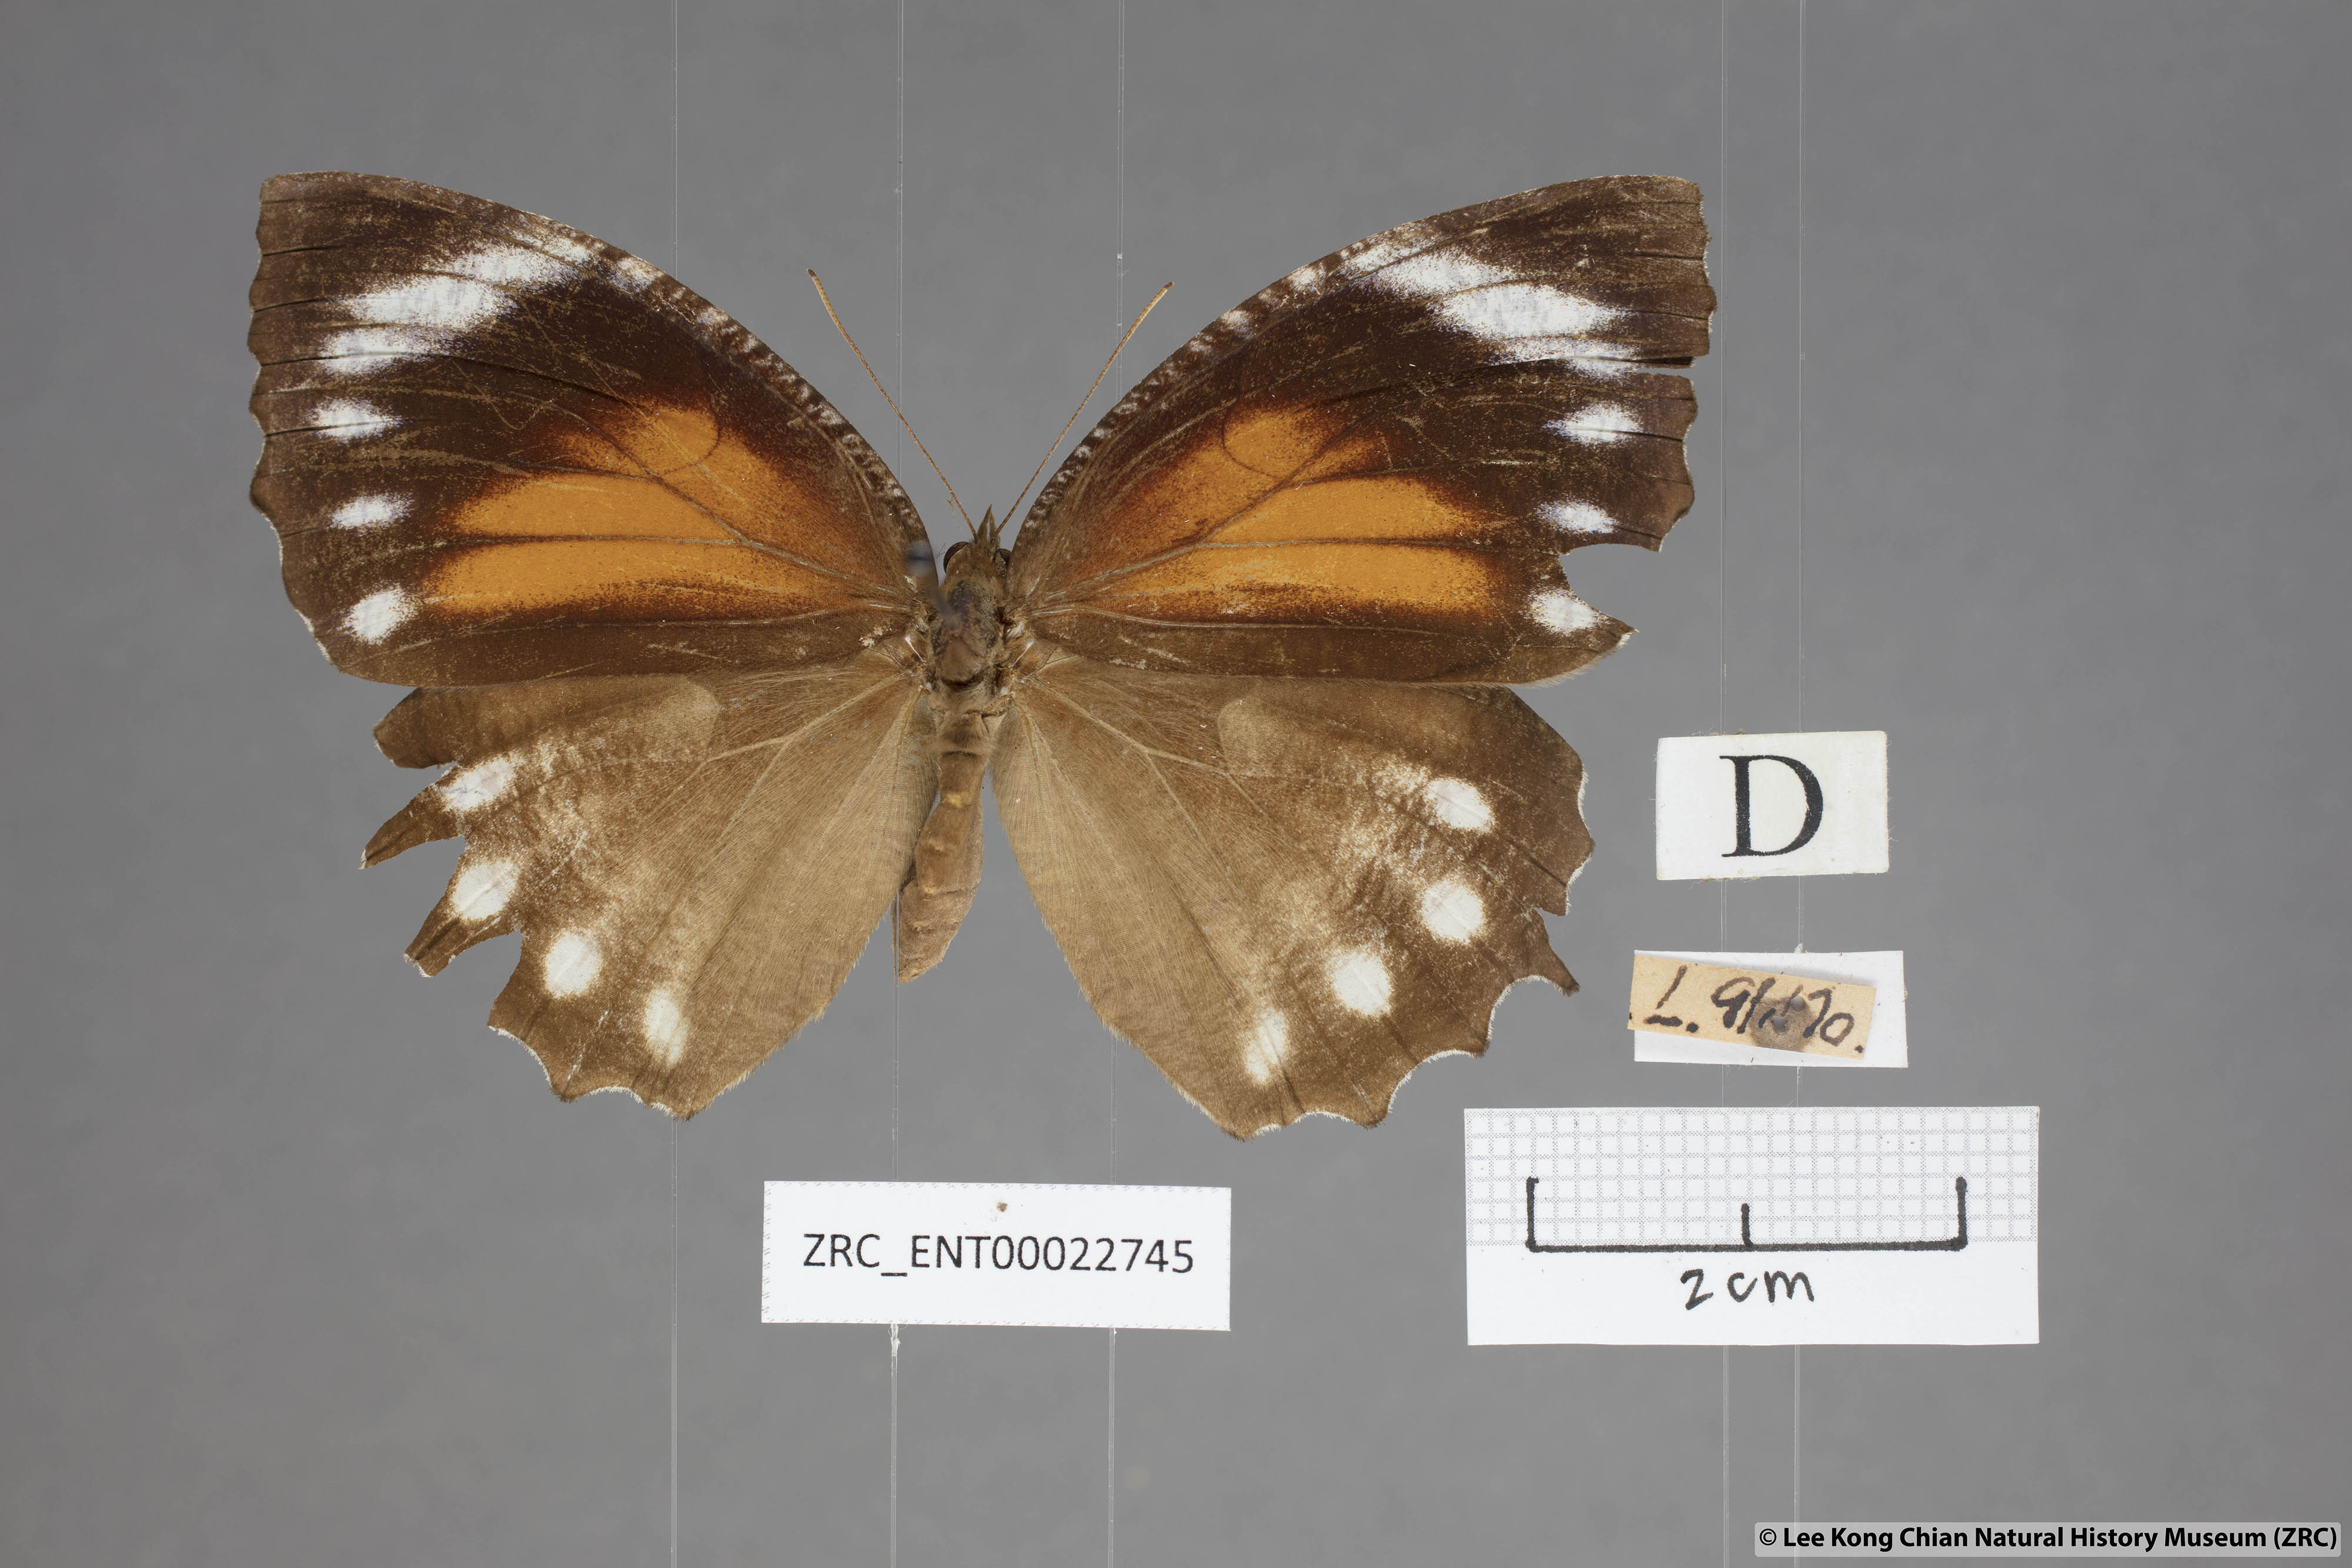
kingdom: Animalia
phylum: Arthropoda
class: Insecta
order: Lepidoptera
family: Nymphalidae
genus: Elymnias
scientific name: Elymnias hypermnestra
